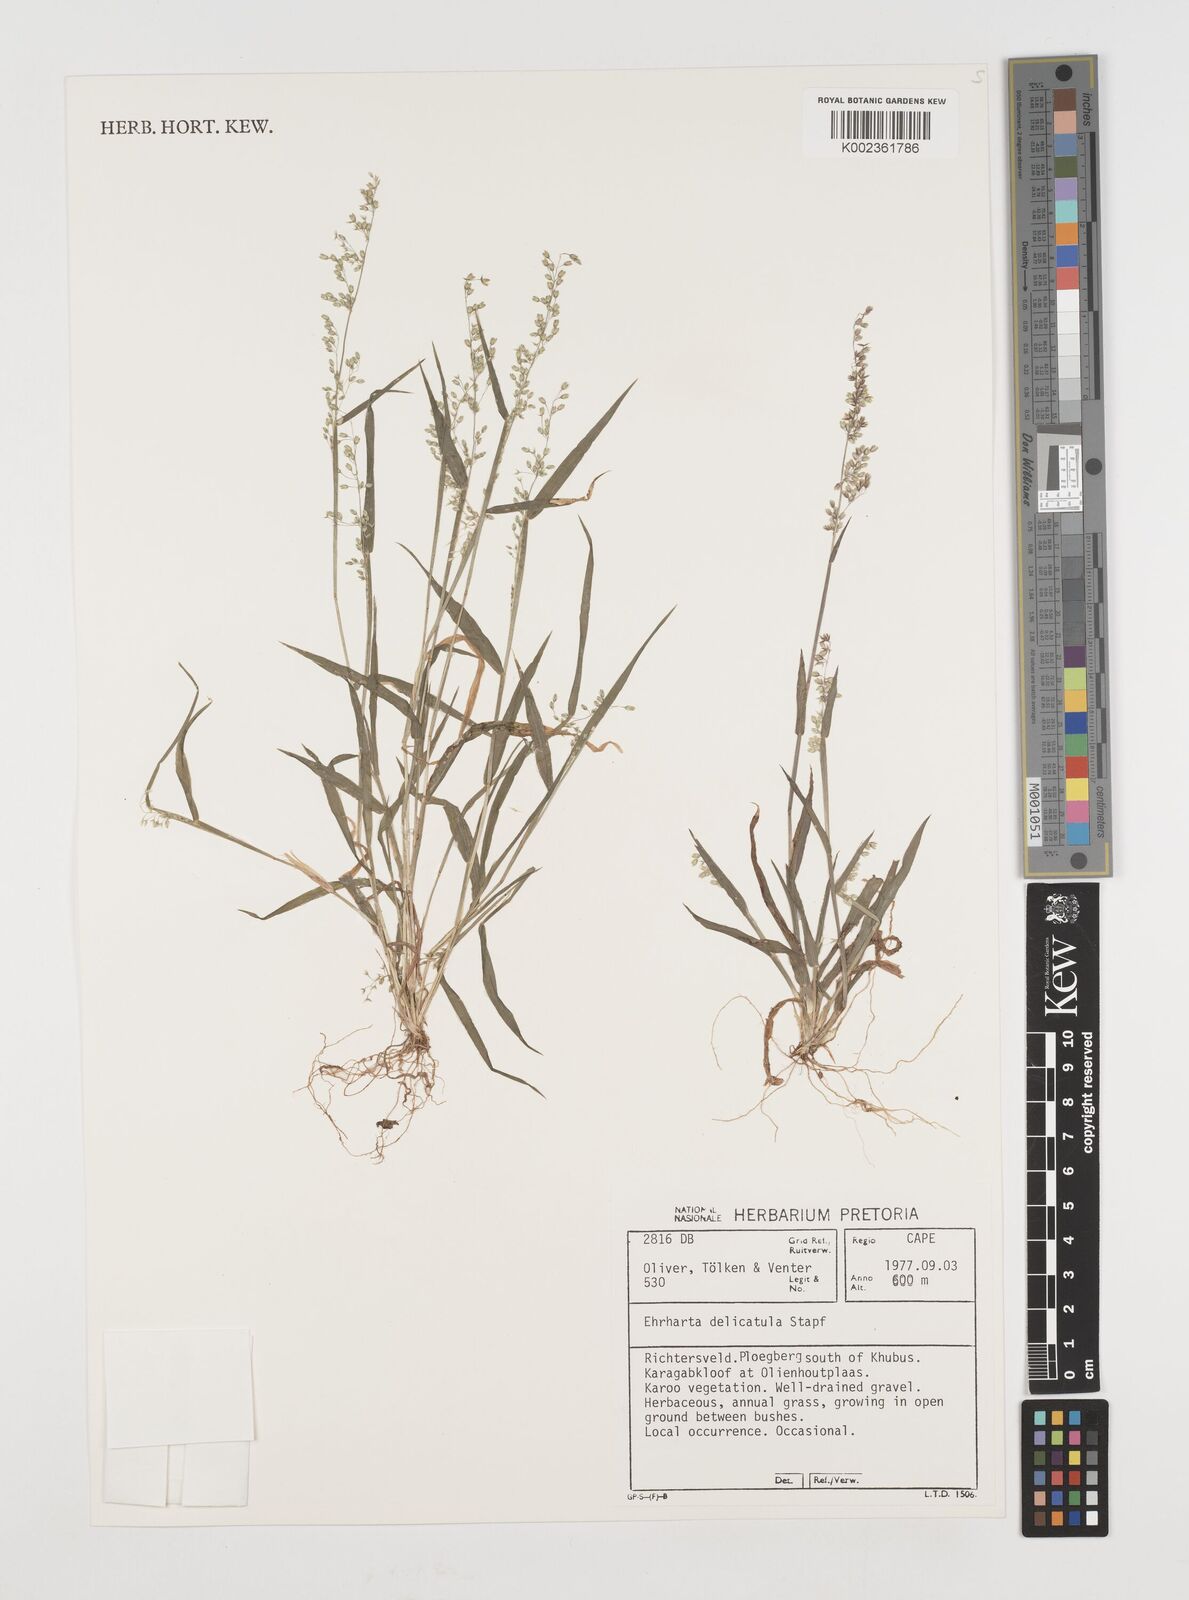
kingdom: Plantae
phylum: Tracheophyta
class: Liliopsida
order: Poales
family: Poaceae
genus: Ehrharta
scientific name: Ehrharta delicatula
